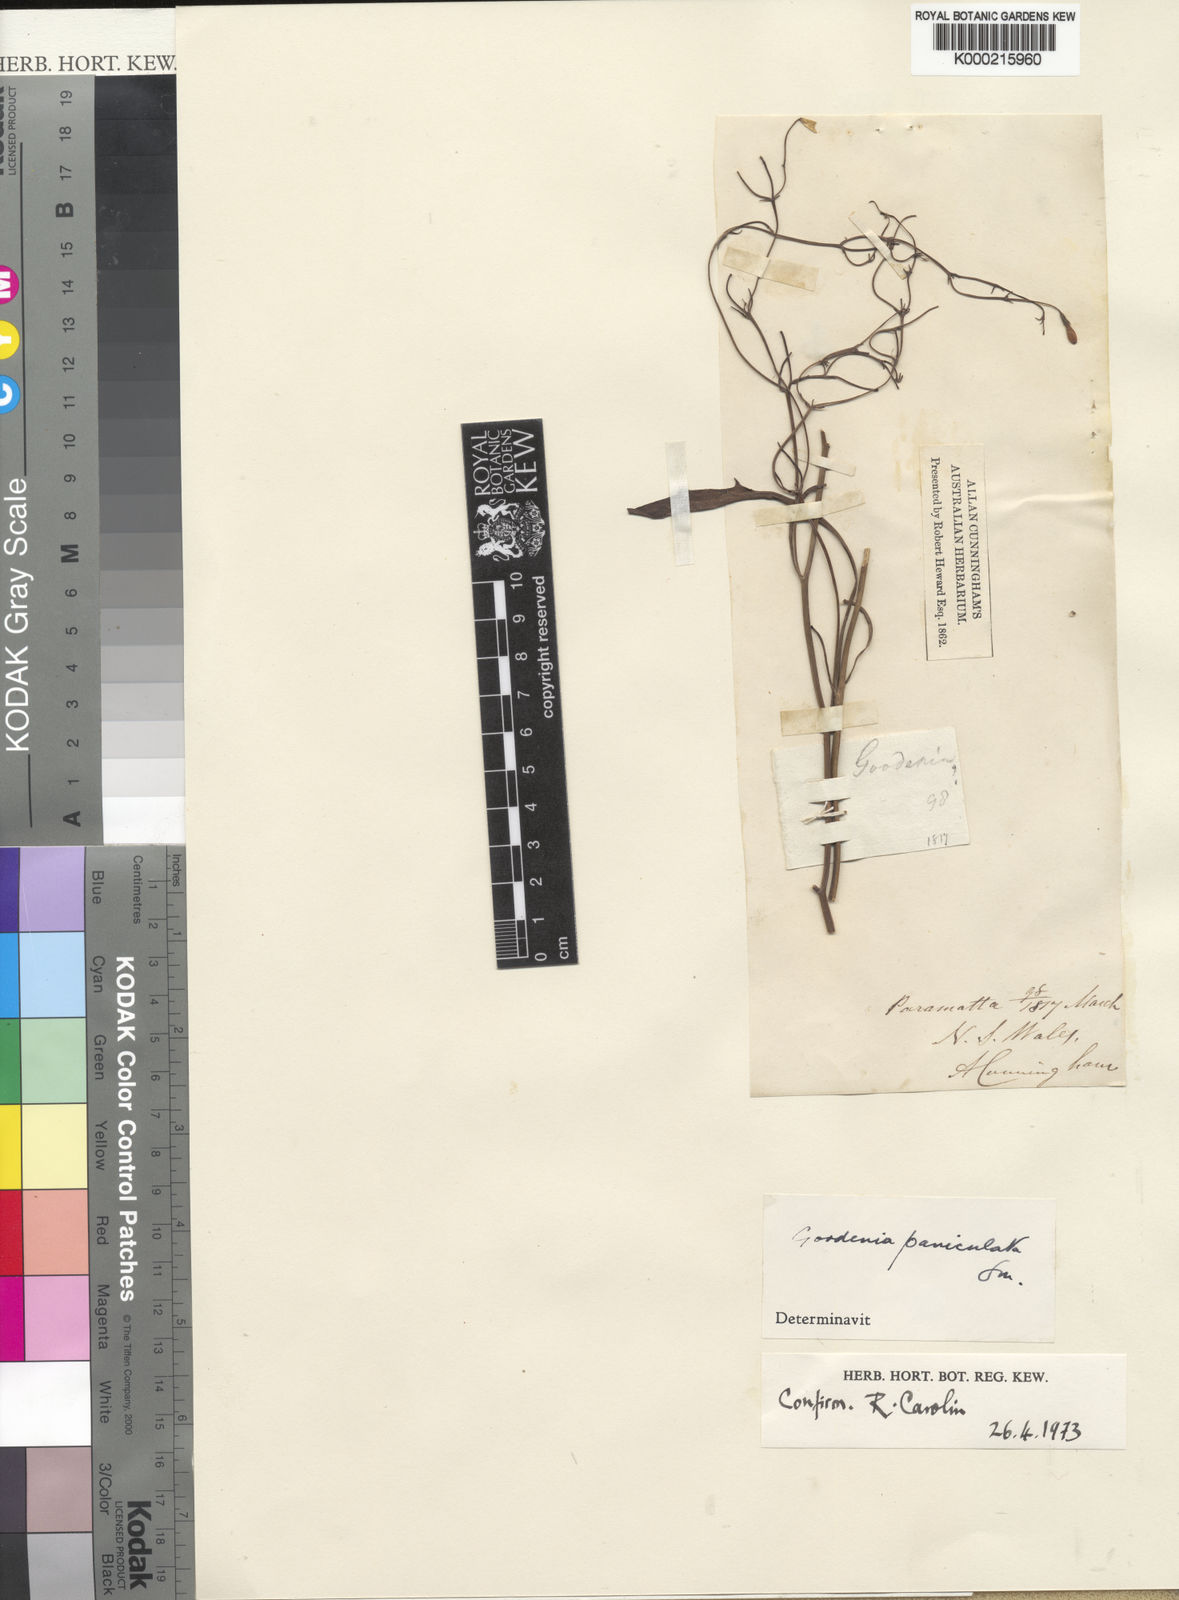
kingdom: Plantae
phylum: Tracheophyta
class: Magnoliopsida
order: Asterales
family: Goodeniaceae
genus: Goodenia
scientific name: Goodenia paniculata
